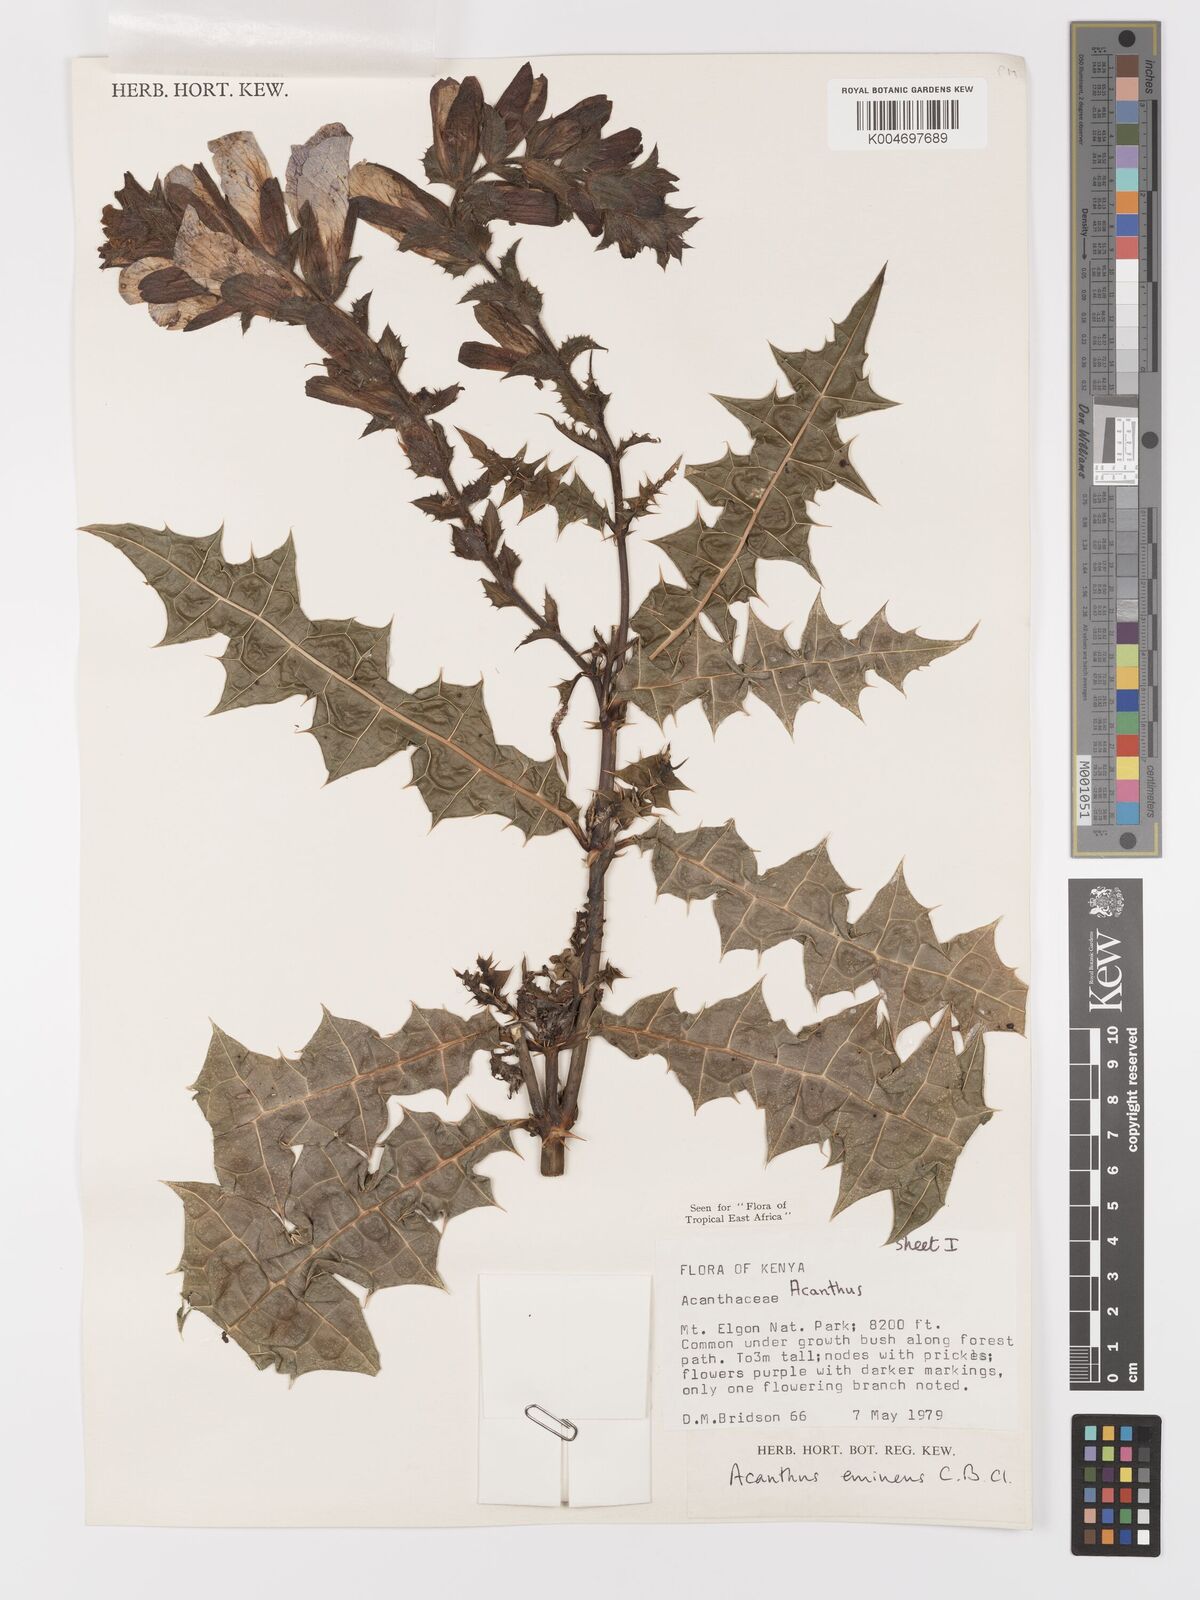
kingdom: Plantae
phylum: Tracheophyta
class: Magnoliopsida
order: Lamiales
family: Acanthaceae
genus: Acanthus
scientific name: Acanthus eminens
